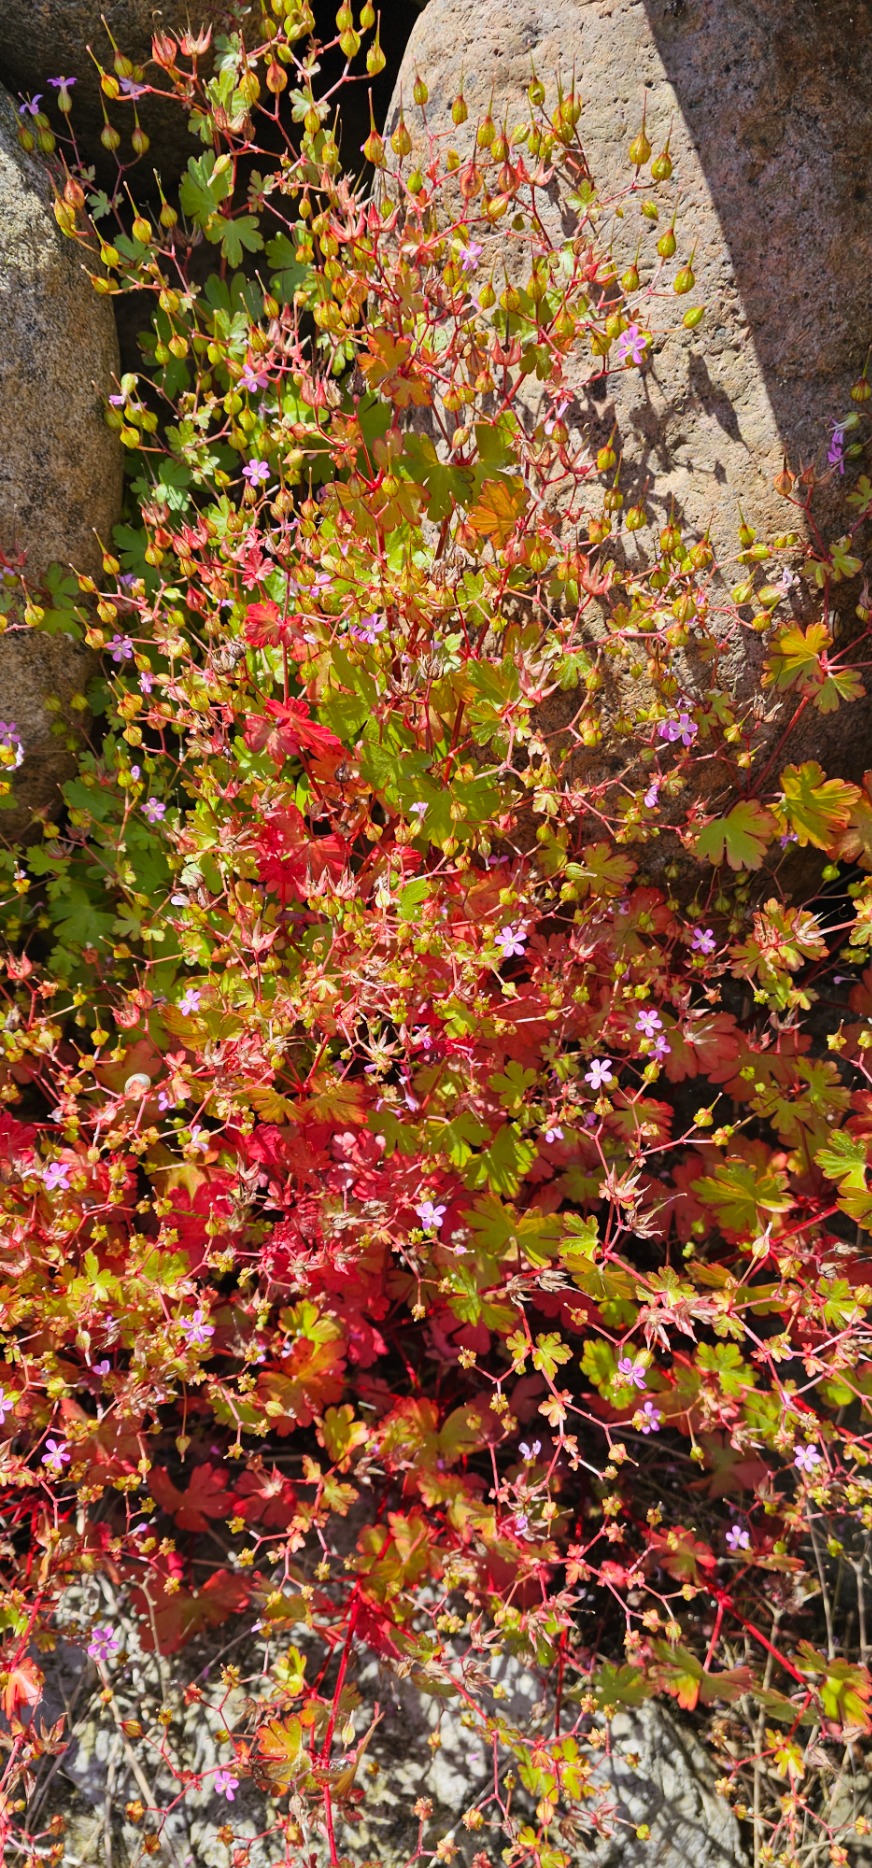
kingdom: Plantae
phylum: Tracheophyta
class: Magnoliopsida
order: Geraniales
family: Geraniaceae
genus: Geranium
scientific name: Geranium lucidum
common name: Skinnende storkenæb
